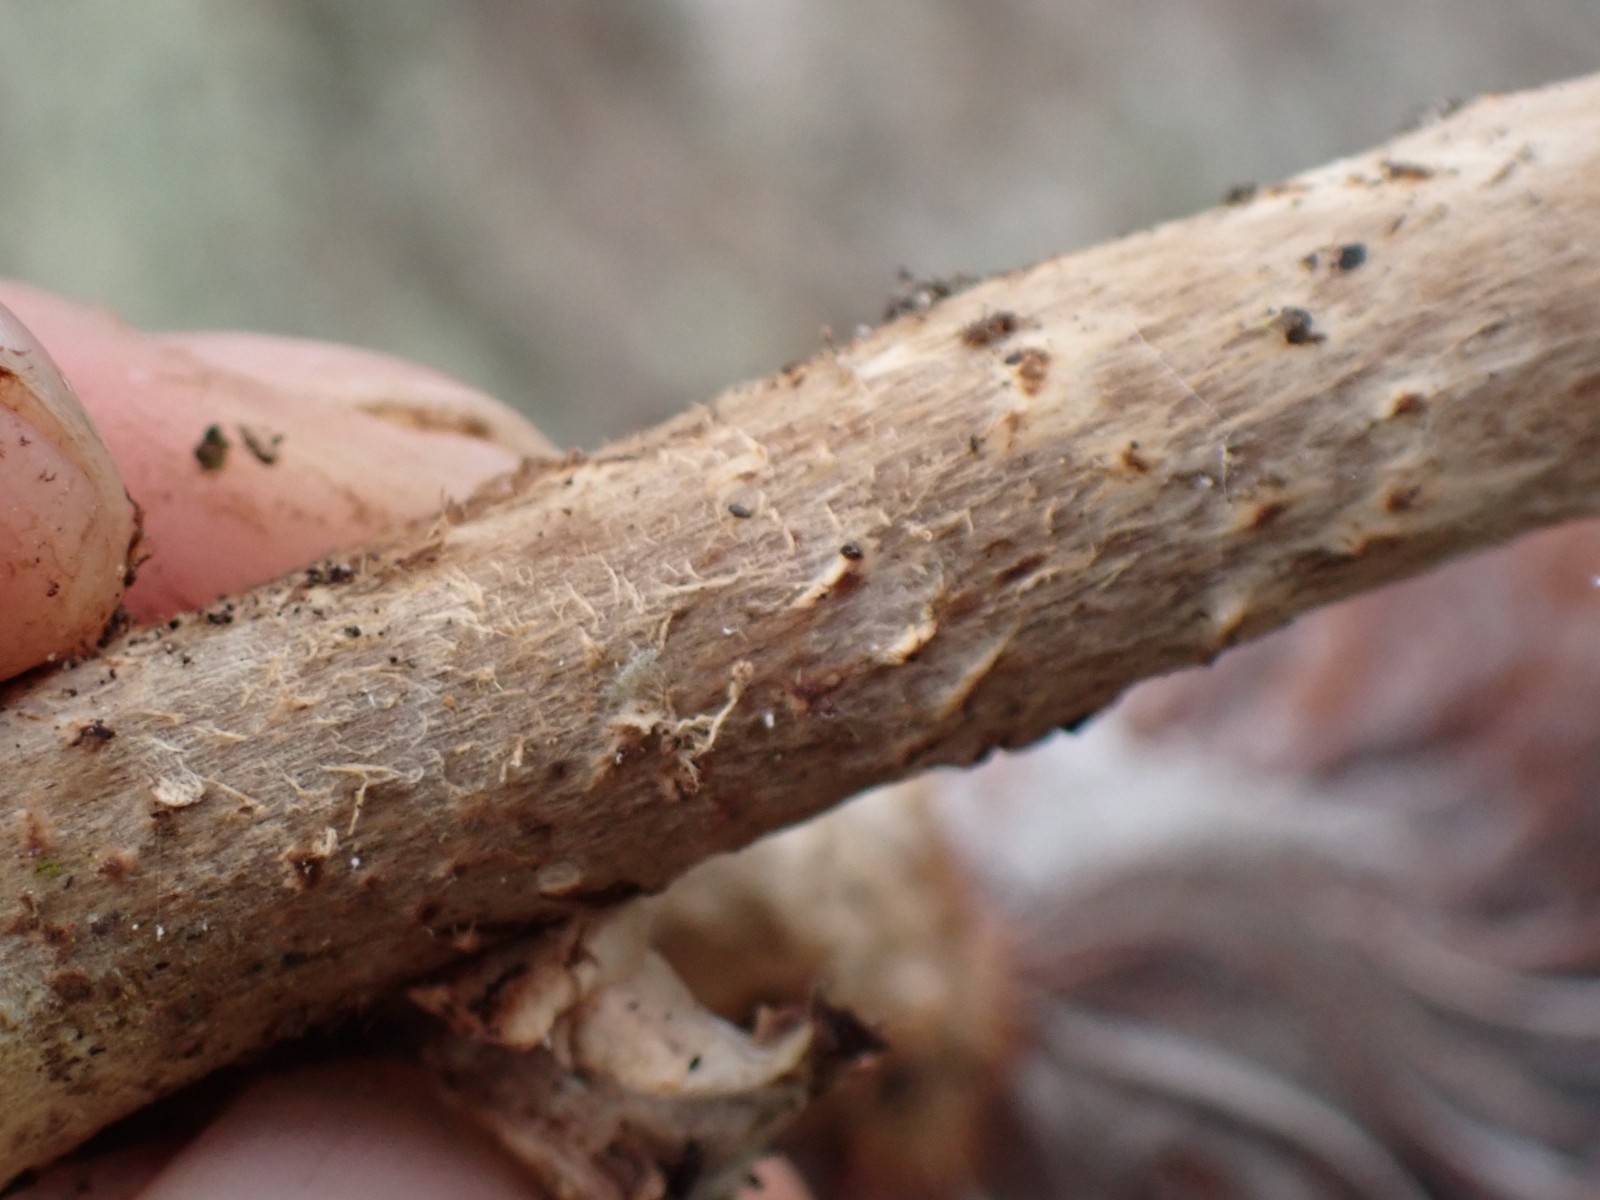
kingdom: Fungi
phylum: Basidiomycota
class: Agaricomycetes
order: Agaricales
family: Physalacriaceae
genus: Armillaria
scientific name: Armillaria
